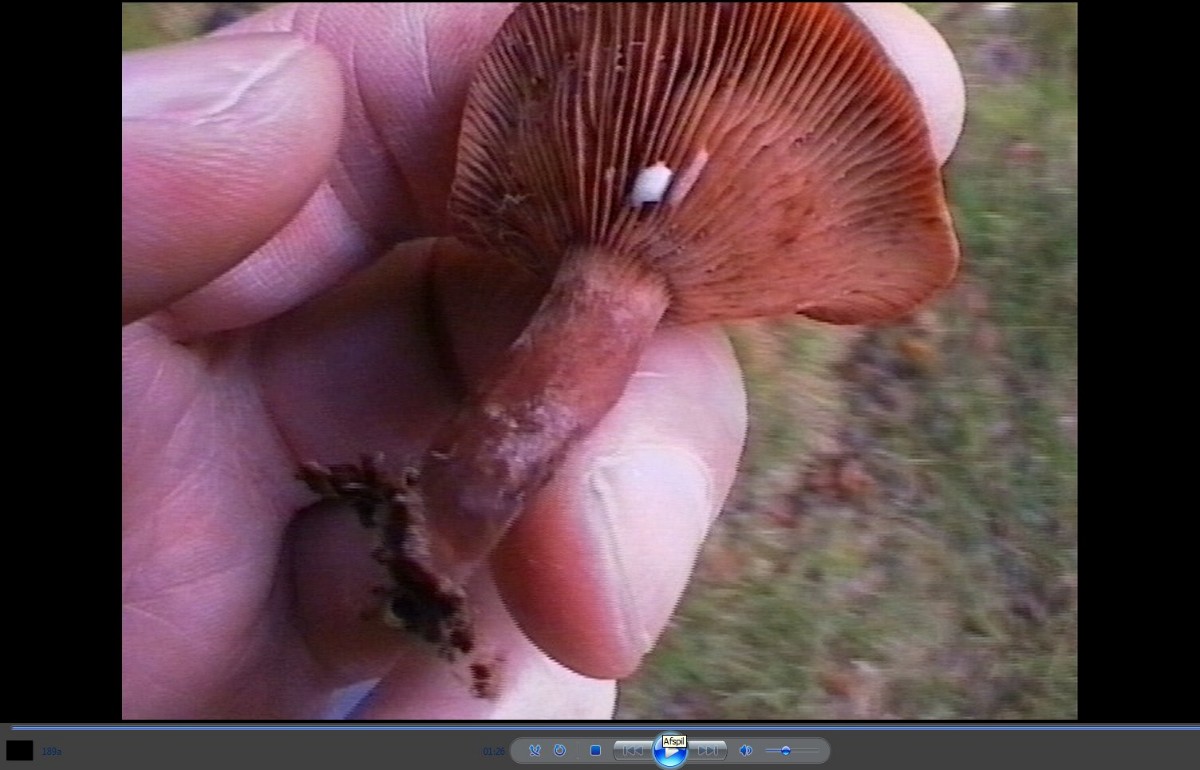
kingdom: Fungi
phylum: Basidiomycota
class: Agaricomycetes
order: Russulales
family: Russulaceae
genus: Lactarius
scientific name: Lactarius camphoratus
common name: kamfer-mælkehat
